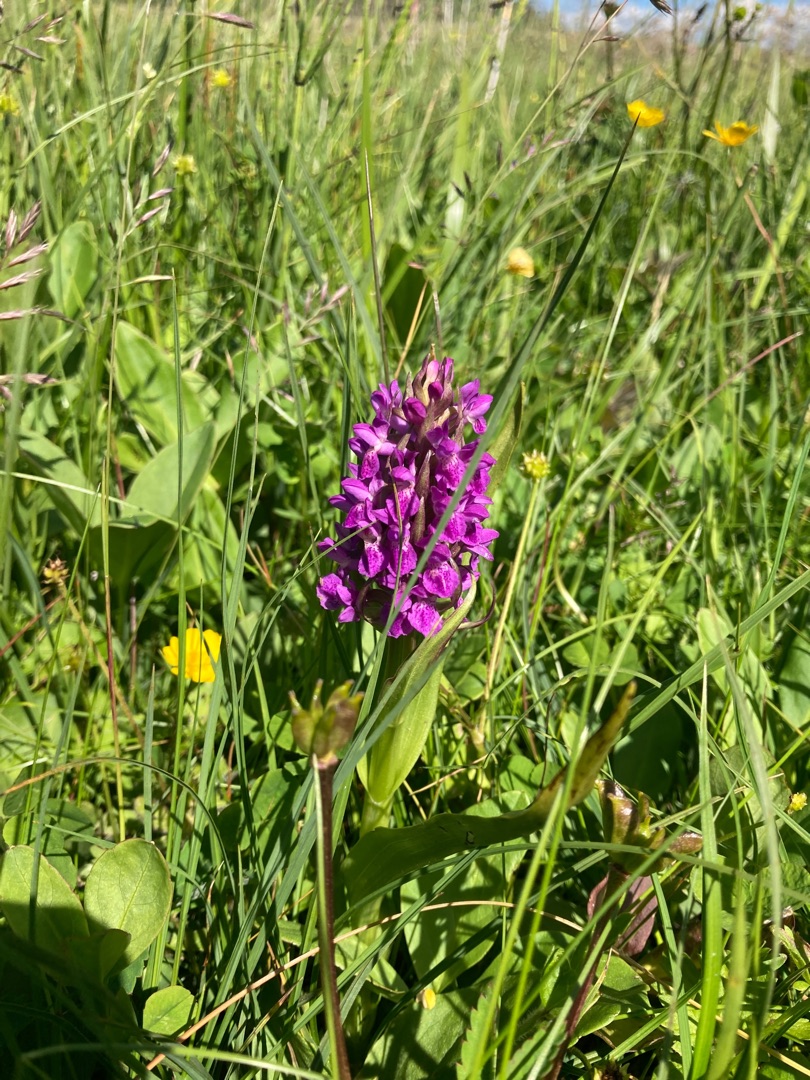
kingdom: Plantae
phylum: Tracheophyta
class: Liliopsida
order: Asparagales
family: Orchidaceae
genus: Dactylorhiza
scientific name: Dactylorhiza majalis
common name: Purpur-gøgeurt
